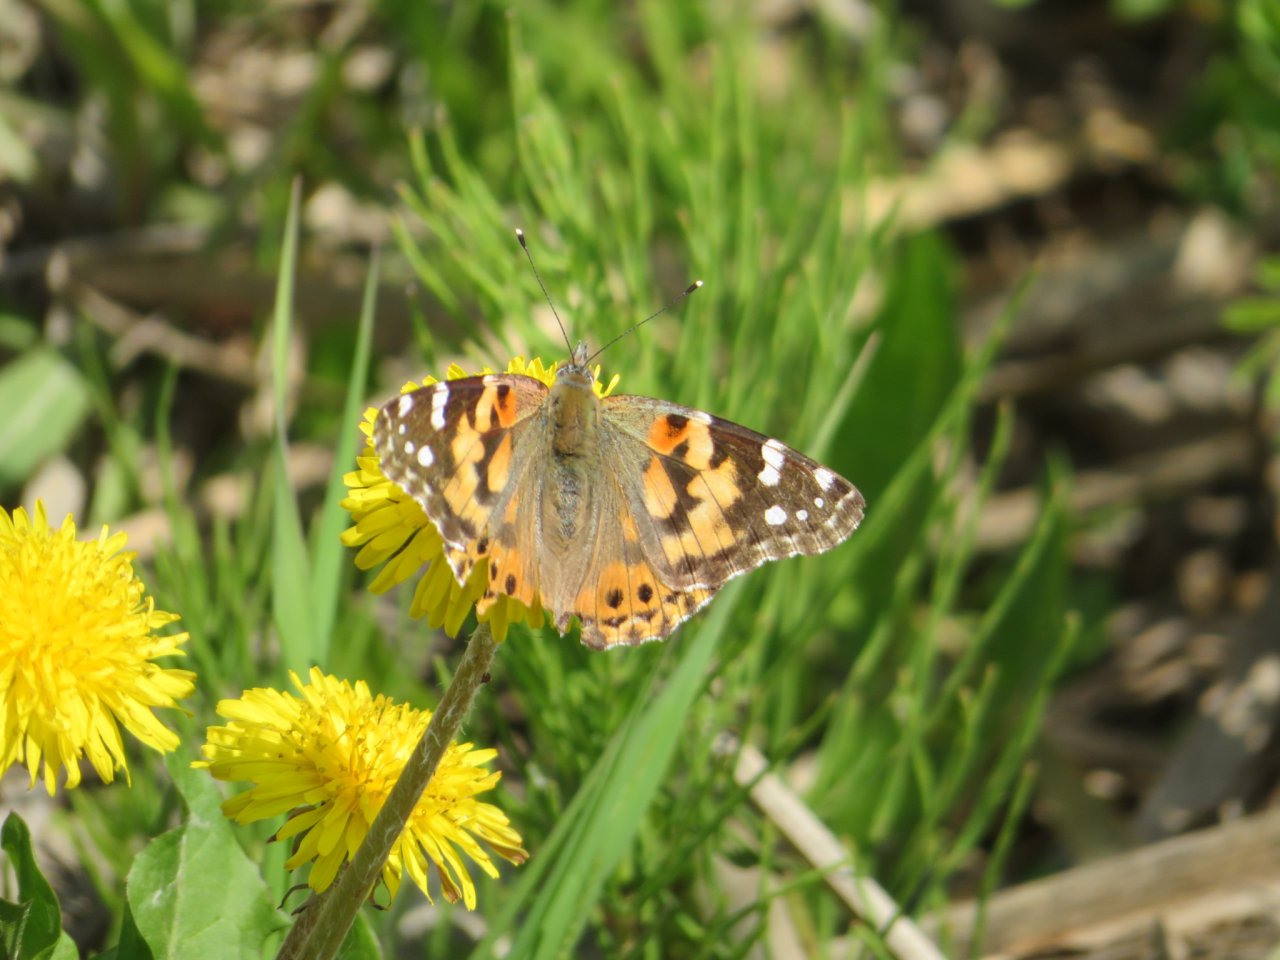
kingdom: Animalia
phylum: Arthropoda
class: Insecta
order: Lepidoptera
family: Nymphalidae
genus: Vanessa
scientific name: Vanessa cardui
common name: Painted Lady
